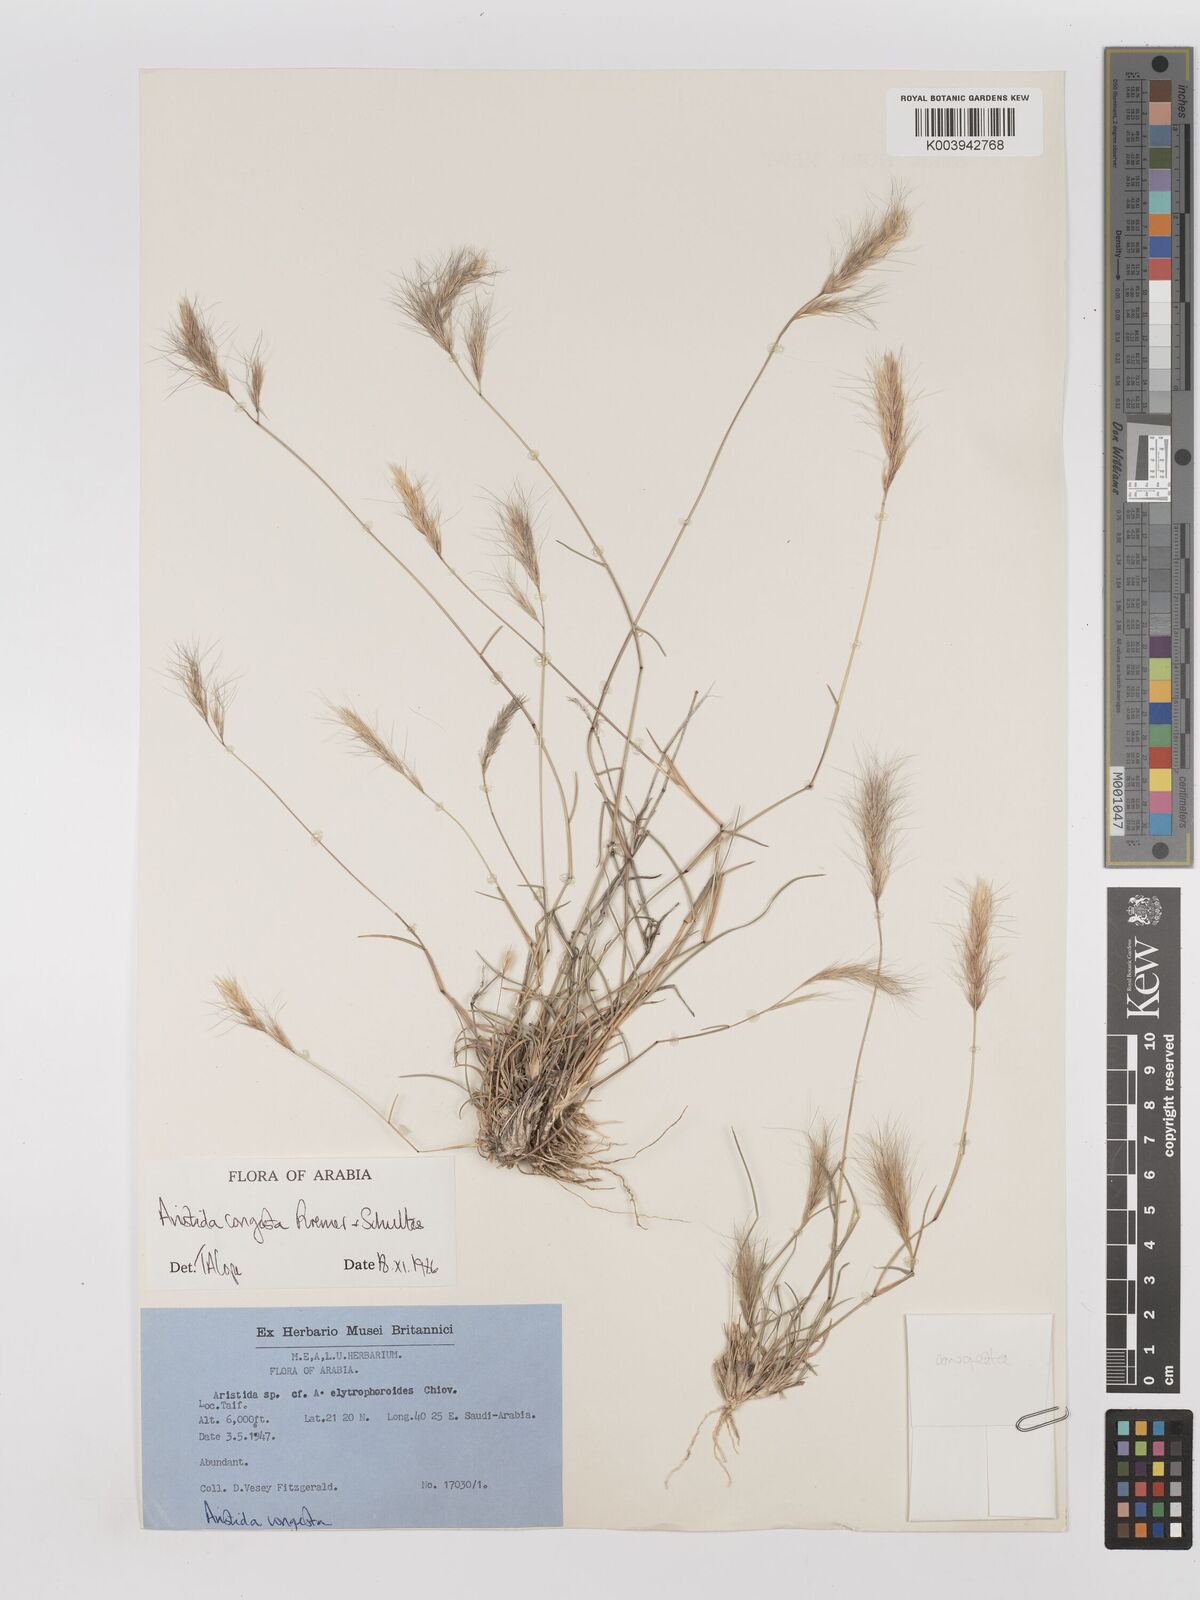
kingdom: Plantae
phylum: Tracheophyta
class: Liliopsida
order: Poales
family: Poaceae
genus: Aristida
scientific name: Aristida congesta
